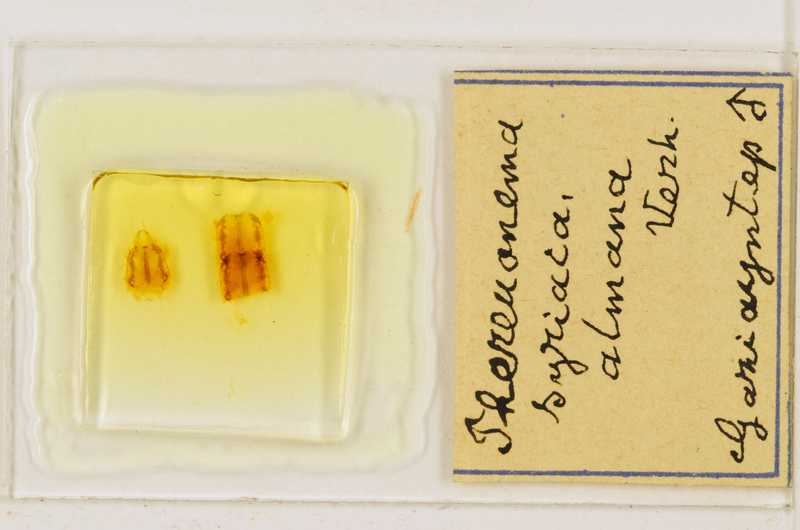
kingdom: Animalia
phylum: Arthropoda
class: Chilopoda
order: Scutigeromorpha
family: Scutigeridae
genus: Thereuonema
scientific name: Thereuonema microstoma
